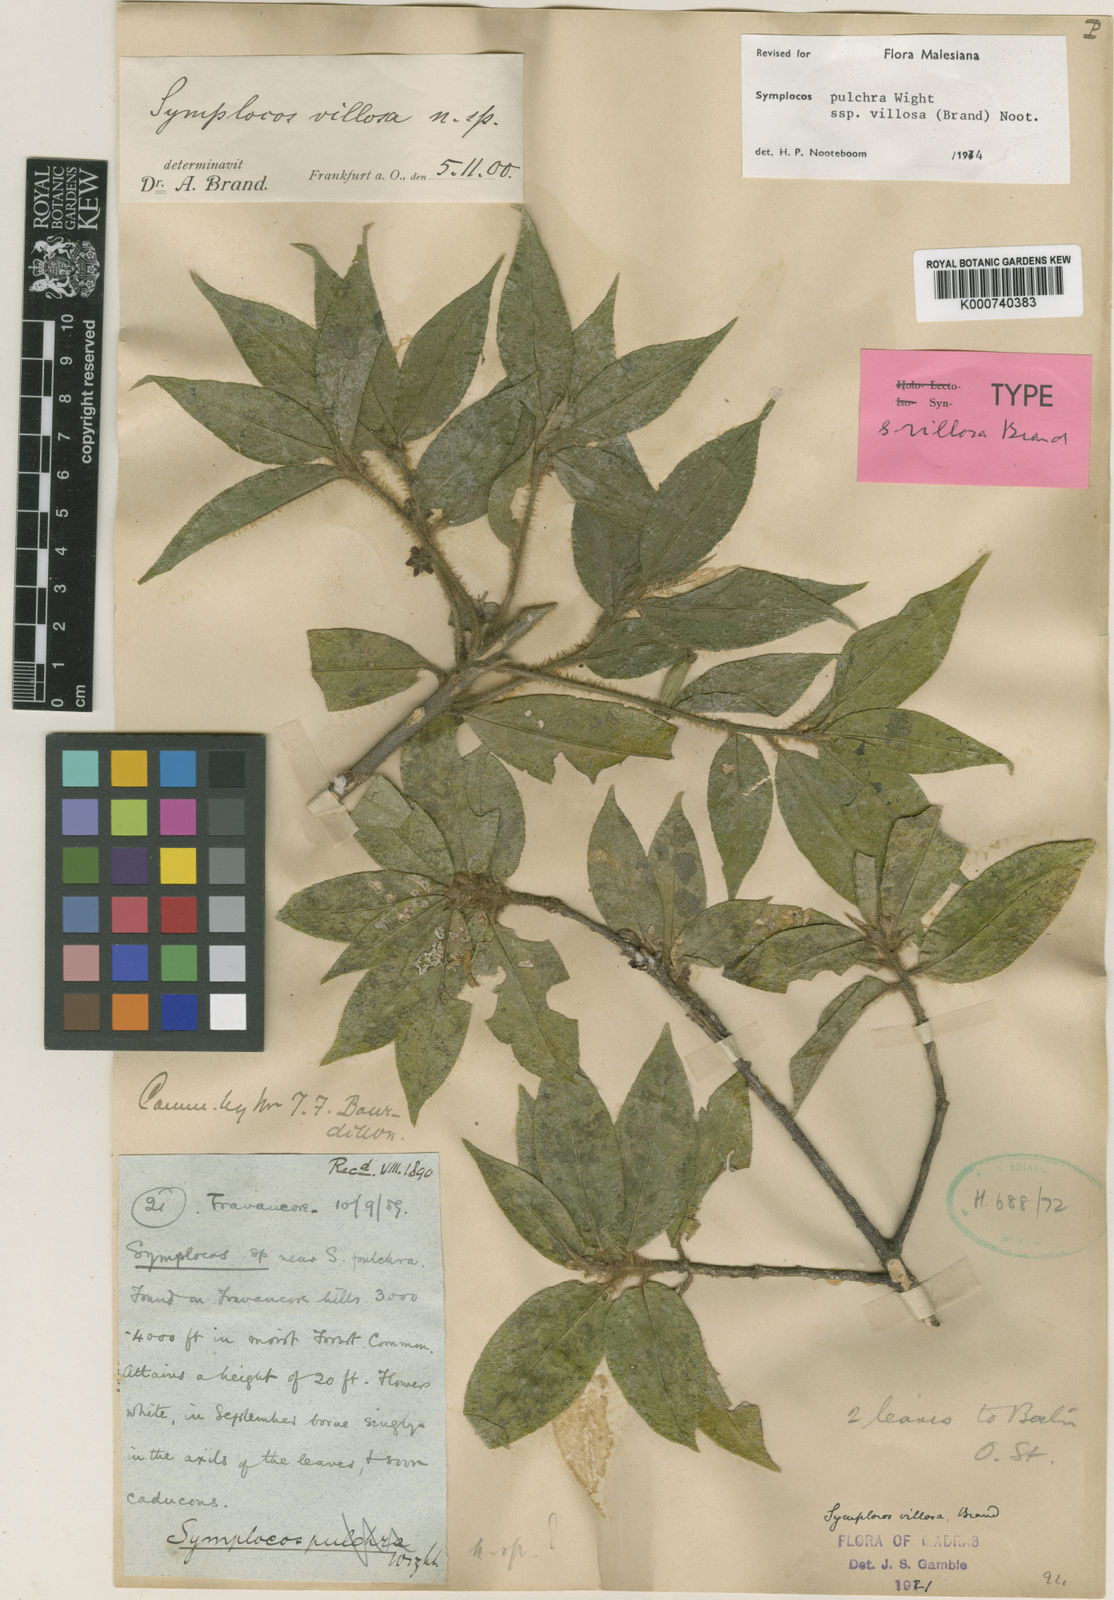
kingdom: Plantae
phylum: Tracheophyta
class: Magnoliopsida
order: Ericales
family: Symplocaceae
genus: Symplocos
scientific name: Symplocos pulchra
